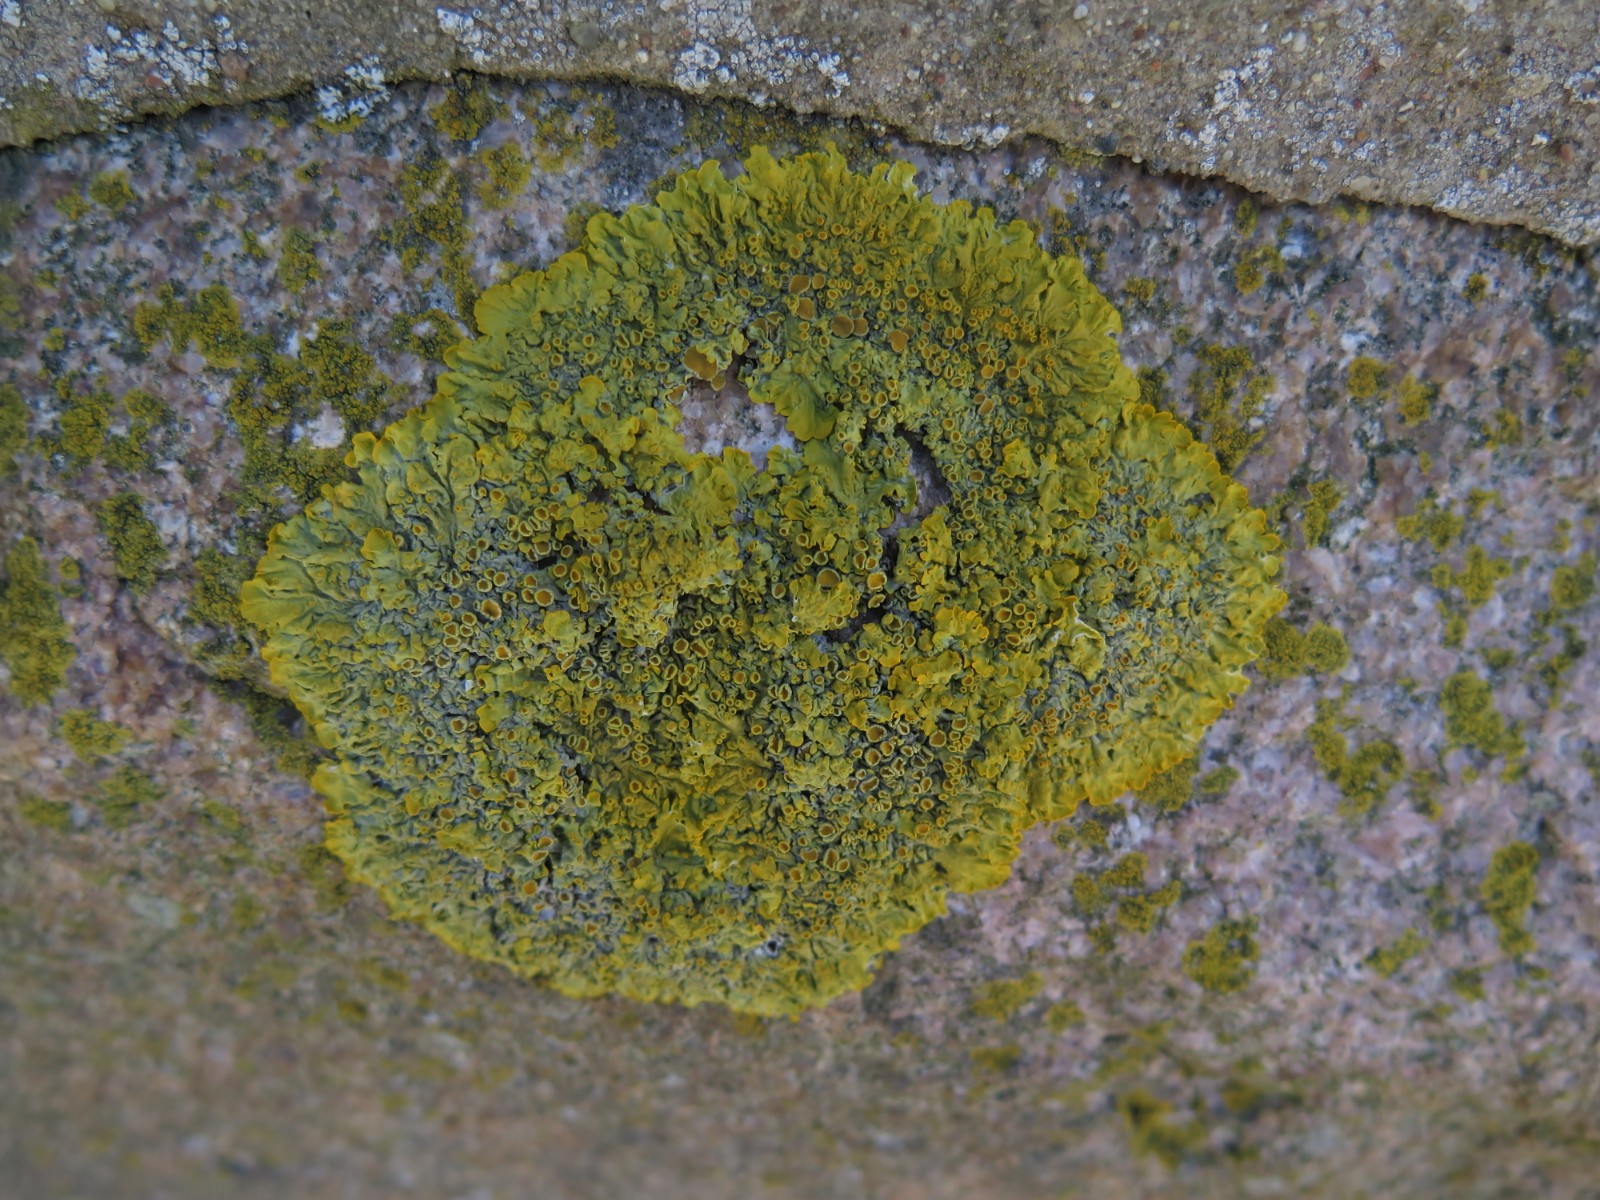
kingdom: Fungi
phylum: Ascomycota
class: Lecanoromycetes
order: Teloschistales
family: Teloschistaceae
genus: Xanthoria
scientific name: Xanthoria parietina
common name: almindelig væggelav
